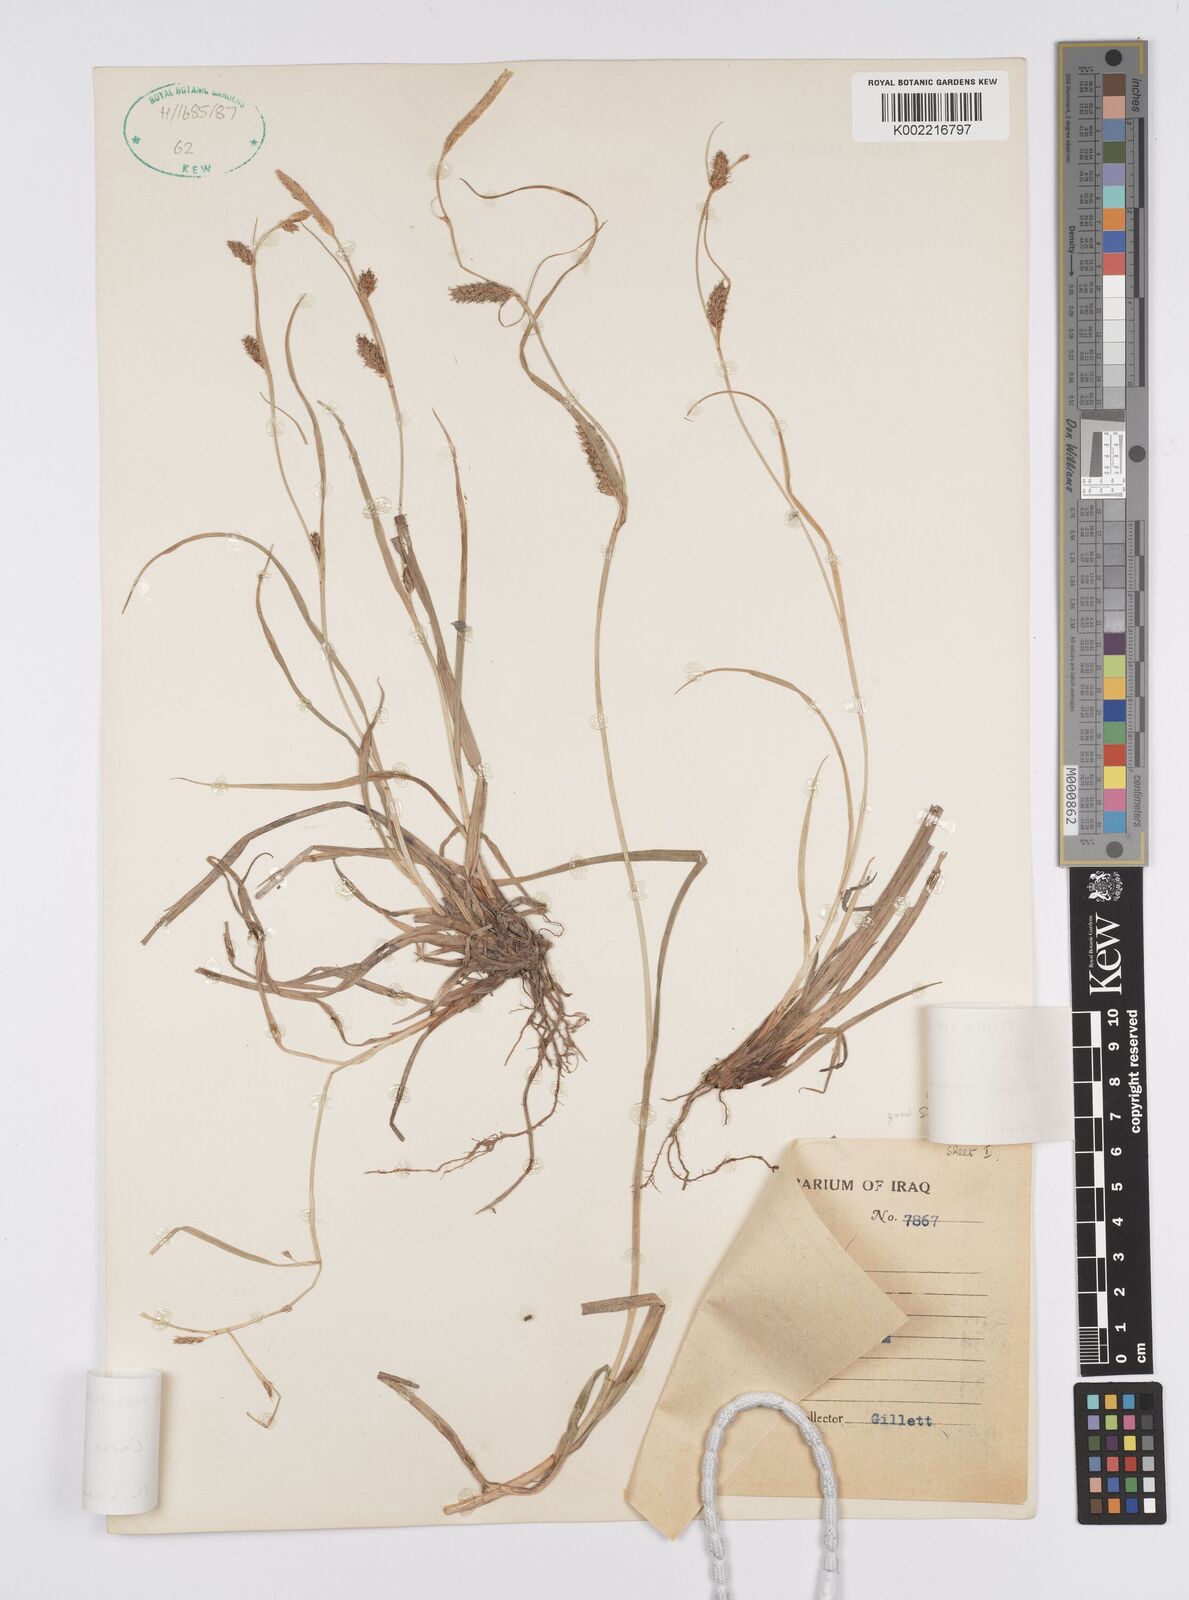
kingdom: Plantae
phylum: Tracheophyta
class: Liliopsida
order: Poales
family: Cyperaceae
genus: Carex
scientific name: Carex diluta
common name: Sedge
